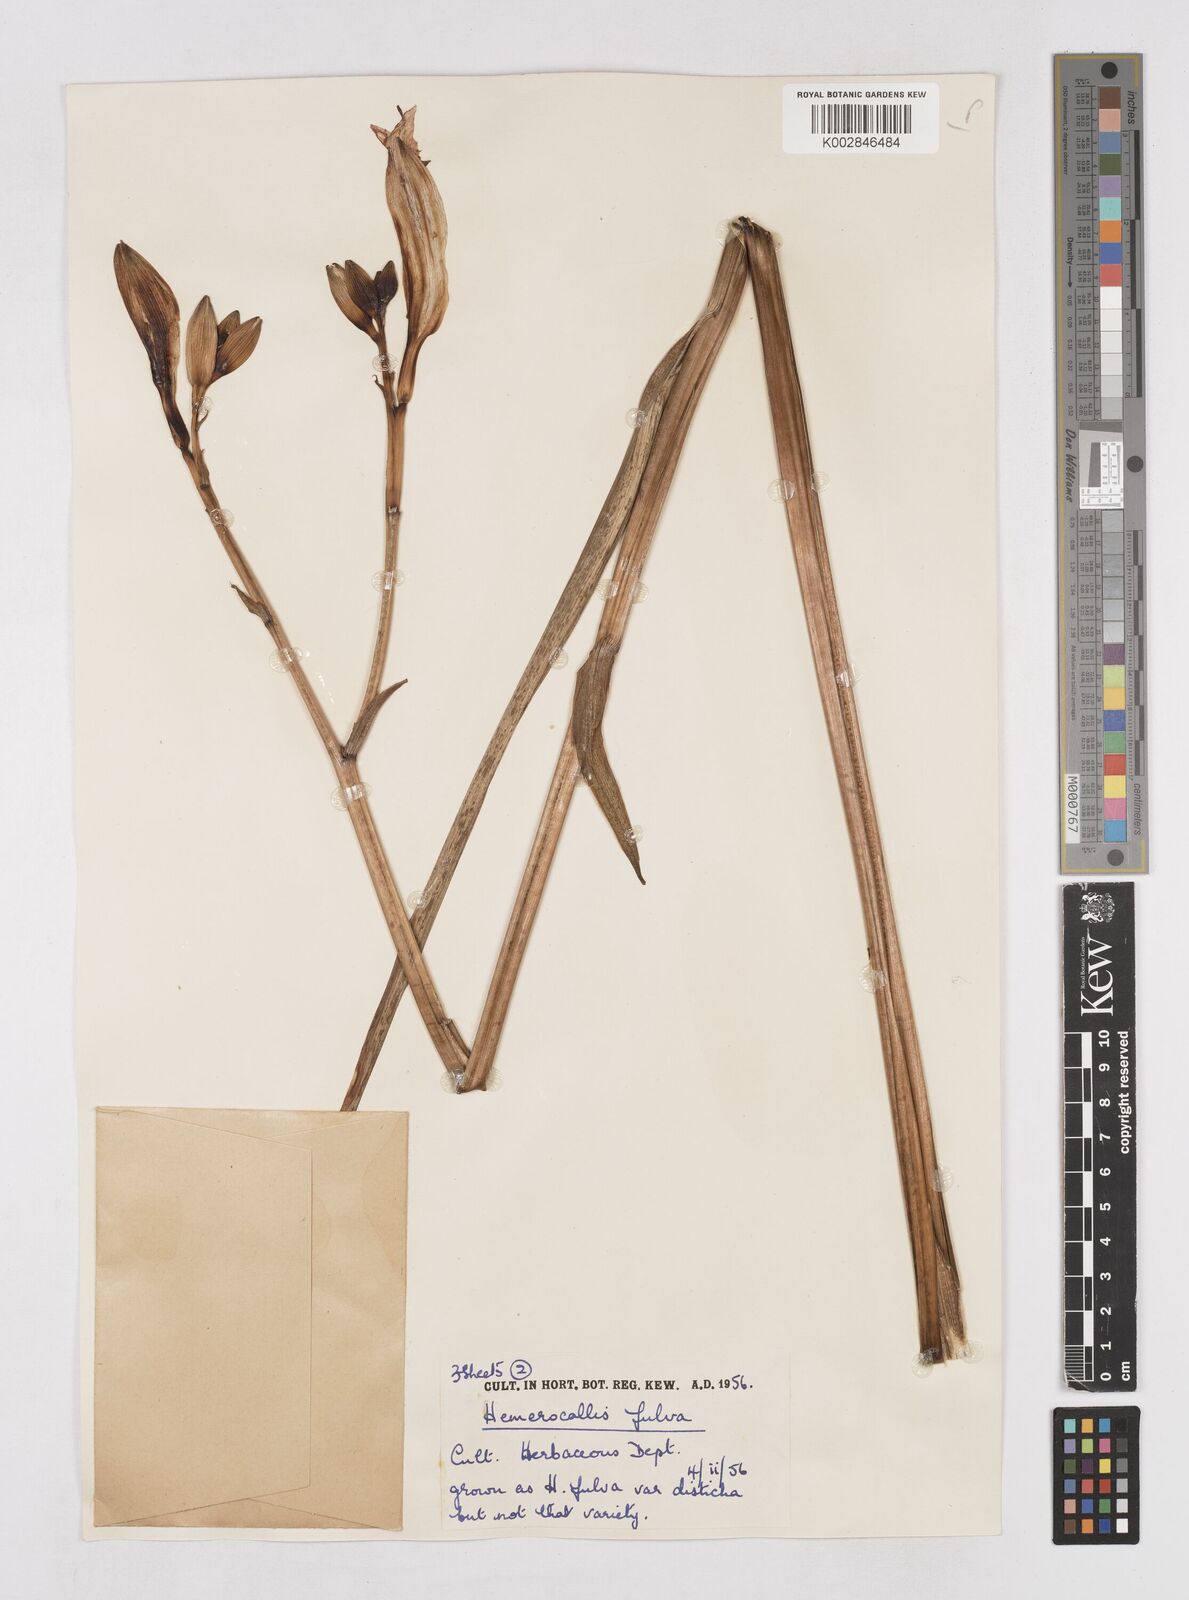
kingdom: Plantae
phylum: Tracheophyta
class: Liliopsida
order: Asparagales
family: Asphodelaceae
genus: Hemerocallis
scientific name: Hemerocallis lilioasphodelus
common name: Yellow day-lily
